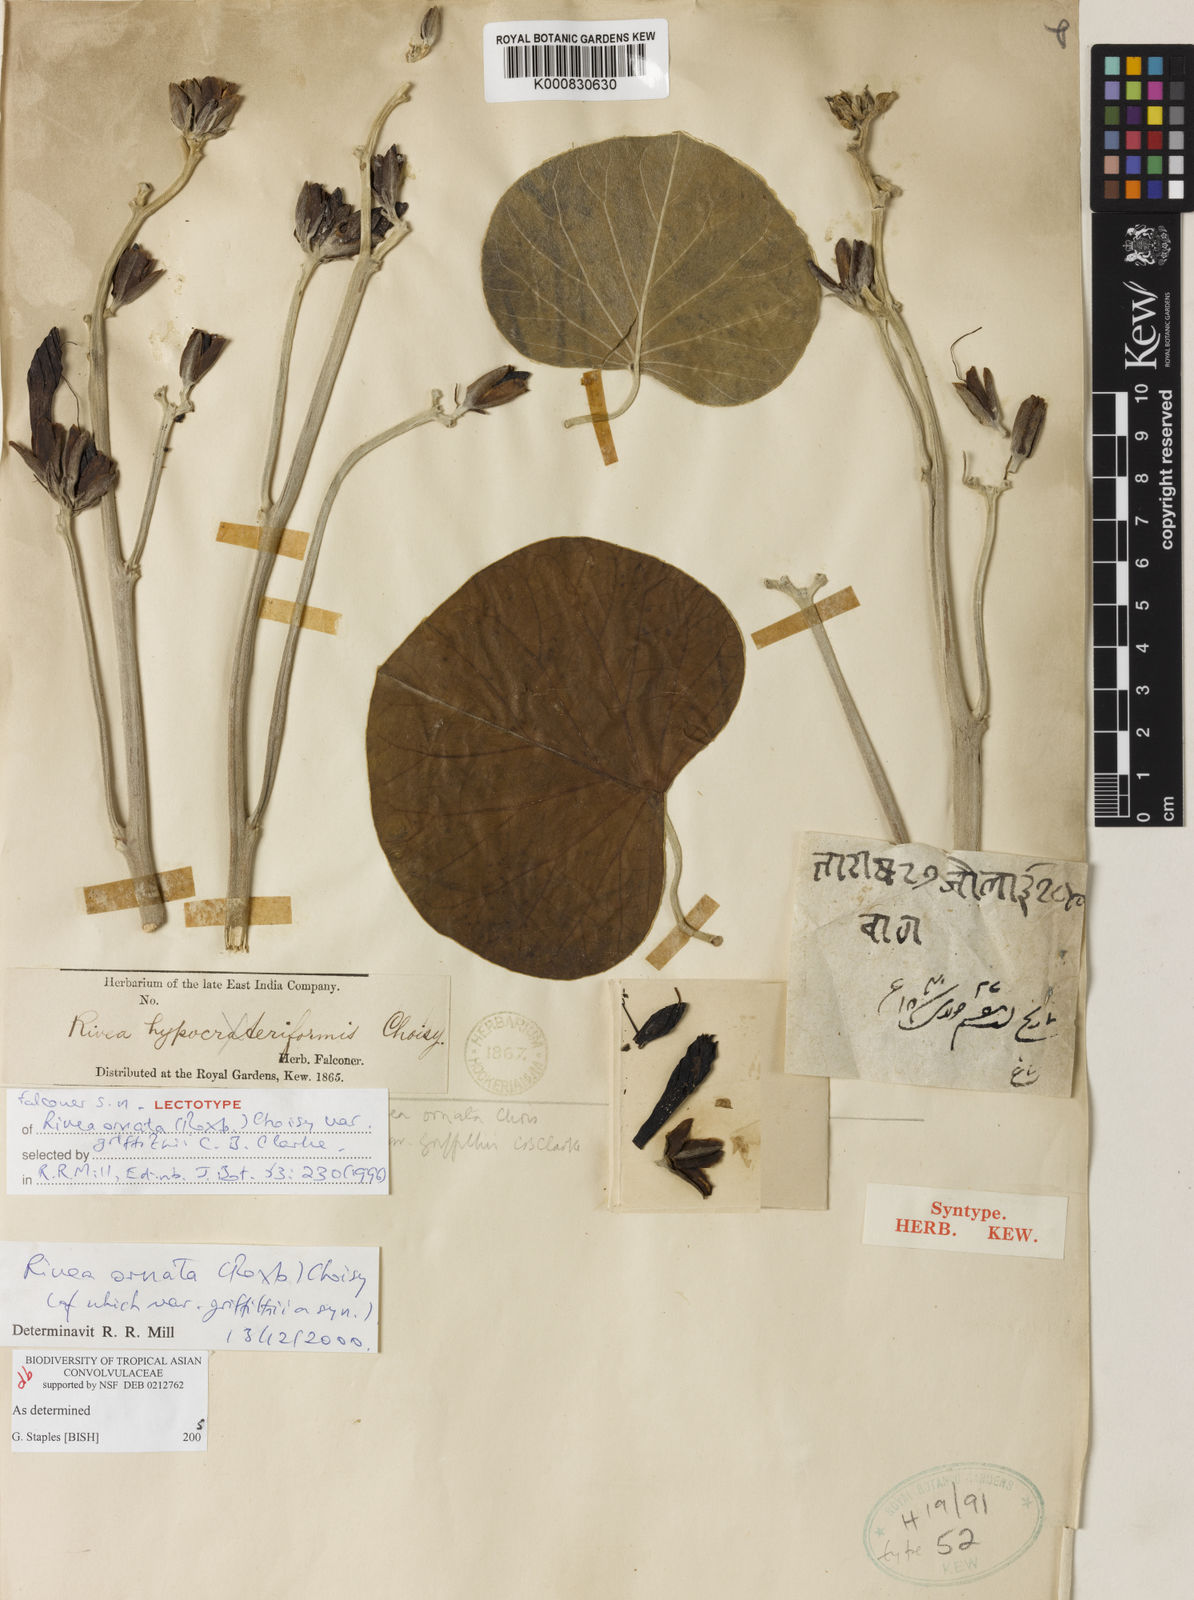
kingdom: Plantae
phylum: Tracheophyta
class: Magnoliopsida
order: Solanales
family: Convolvulaceae
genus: Rivea
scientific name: Rivea ornata
